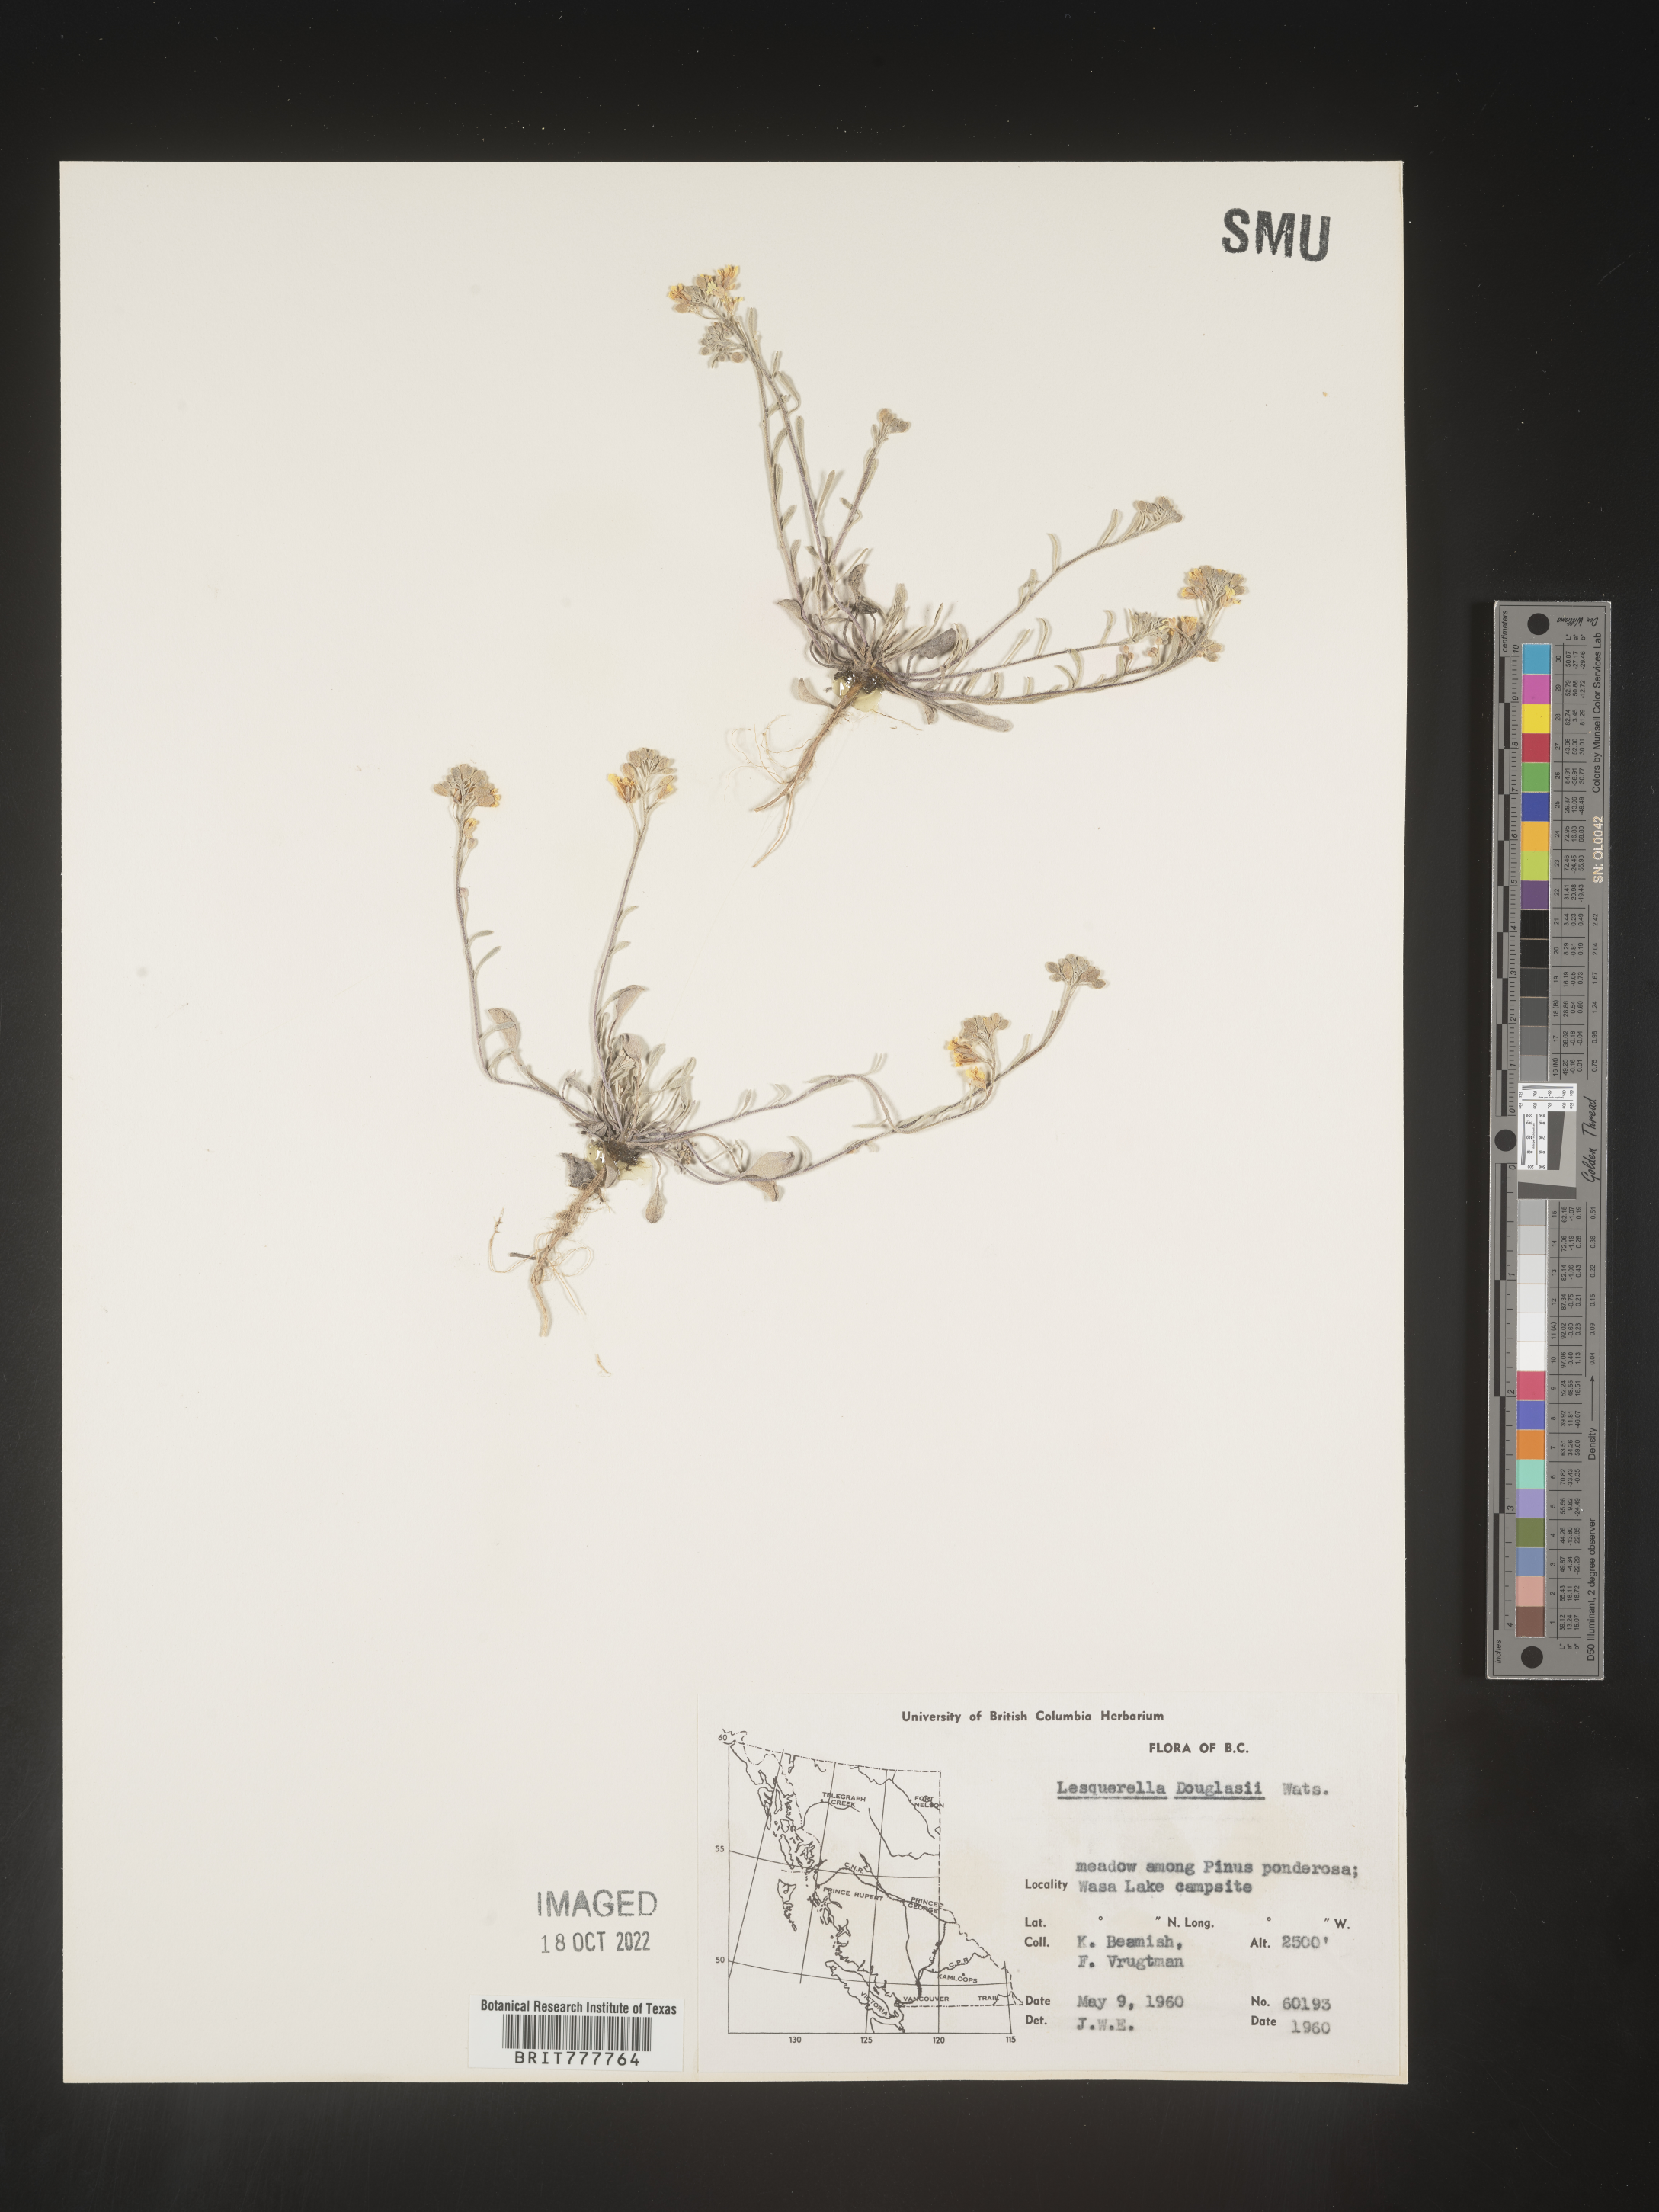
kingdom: Chromista
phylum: Cercozoa
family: Psammonobiotidae
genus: Lesquerella
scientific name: Lesquerella
